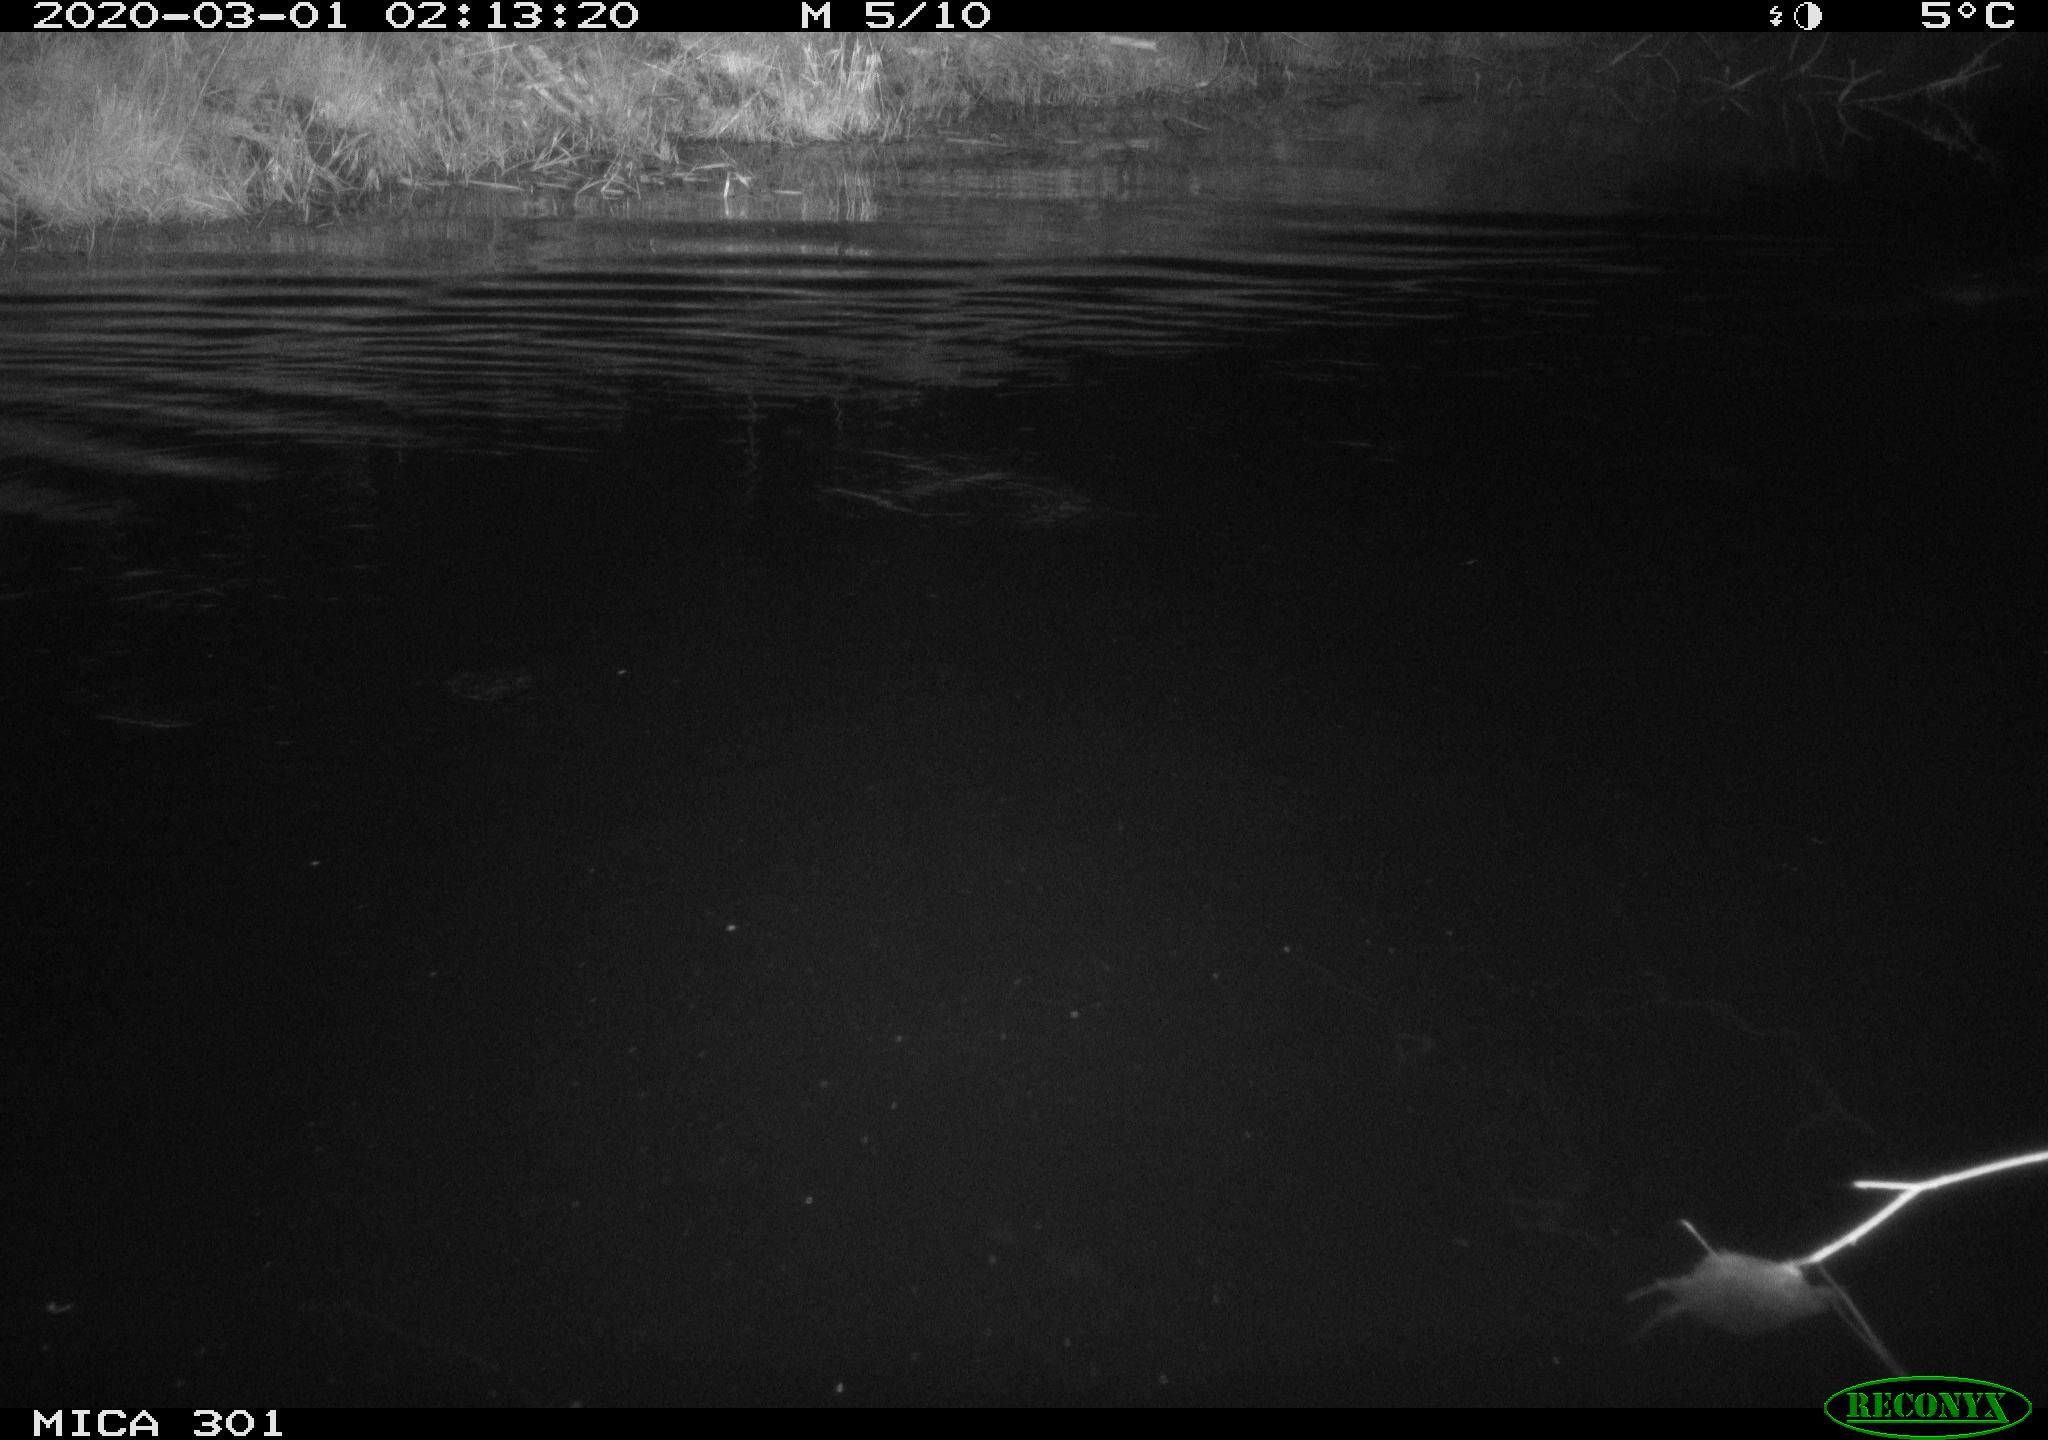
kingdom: Animalia
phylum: Chordata
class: Mammalia
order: Rodentia
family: Castoridae
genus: Castor
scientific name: Castor fiber
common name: Eurasian beaver
